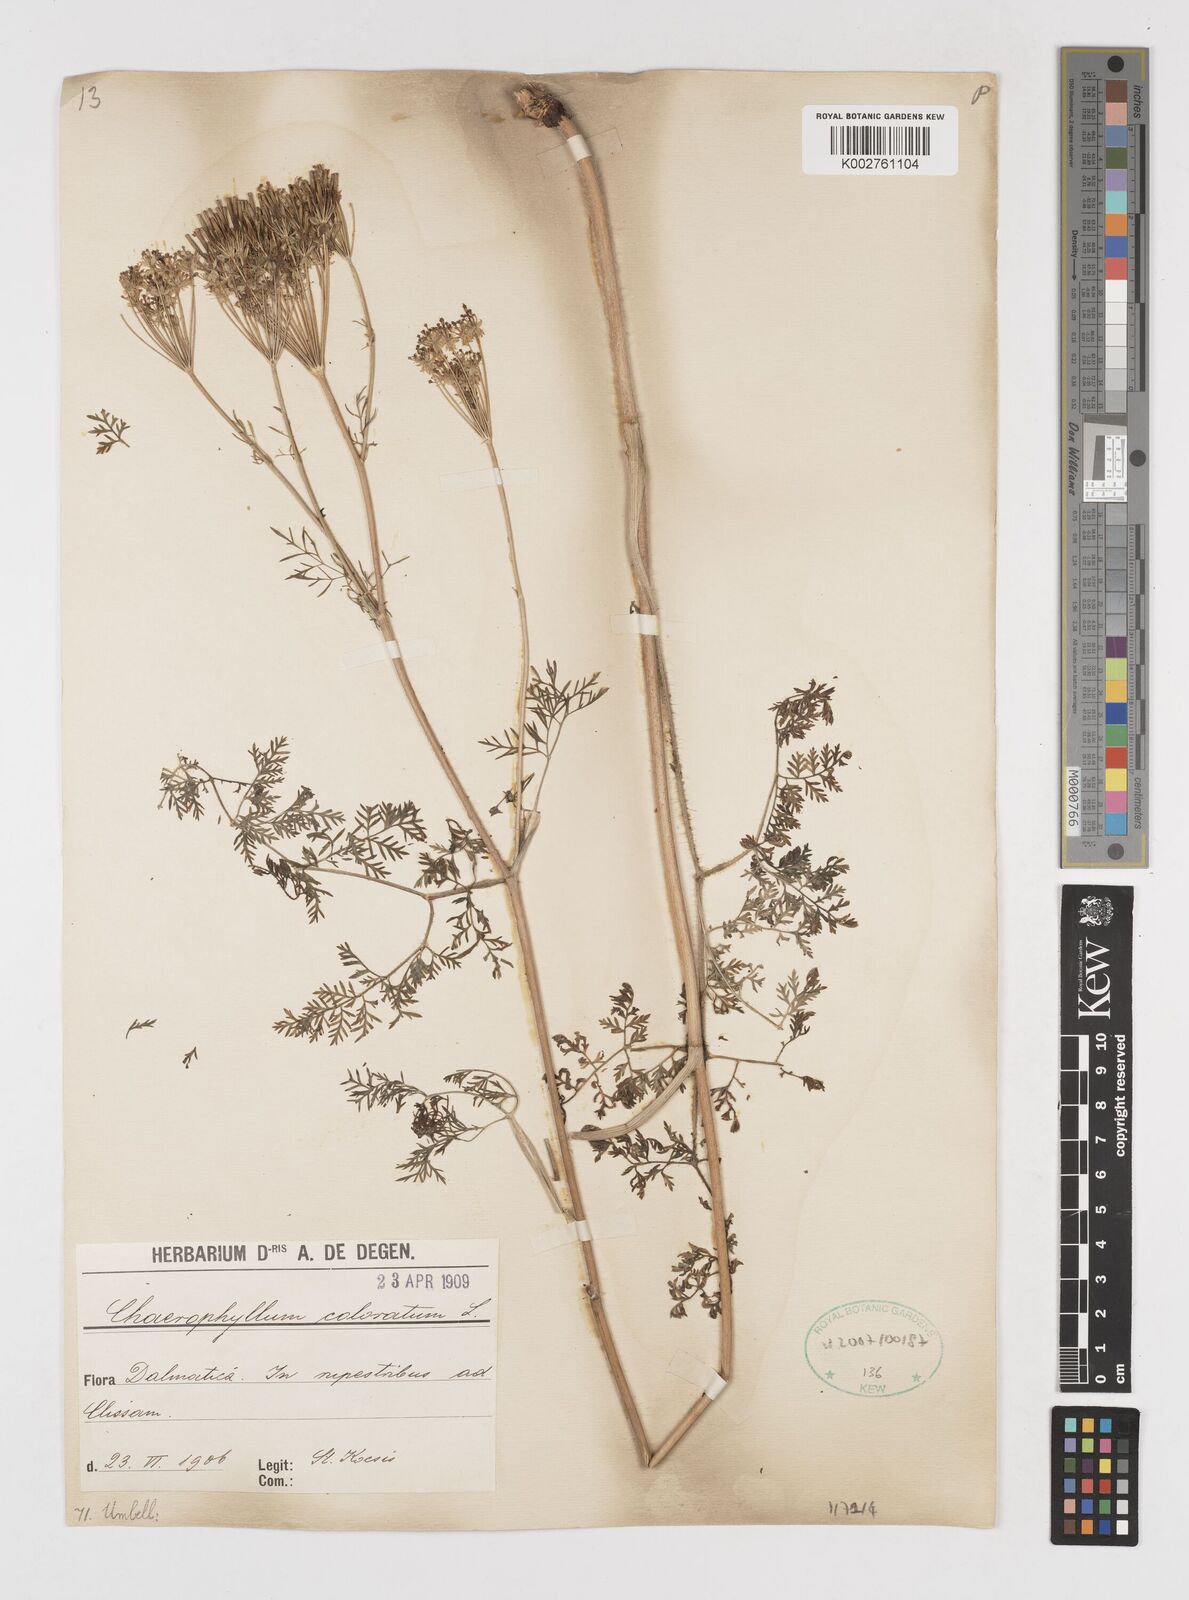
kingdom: Plantae
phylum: Tracheophyta
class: Magnoliopsida
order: Apiales
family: Apiaceae
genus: Chaerophyllum
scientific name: Chaerophyllum coloratum
